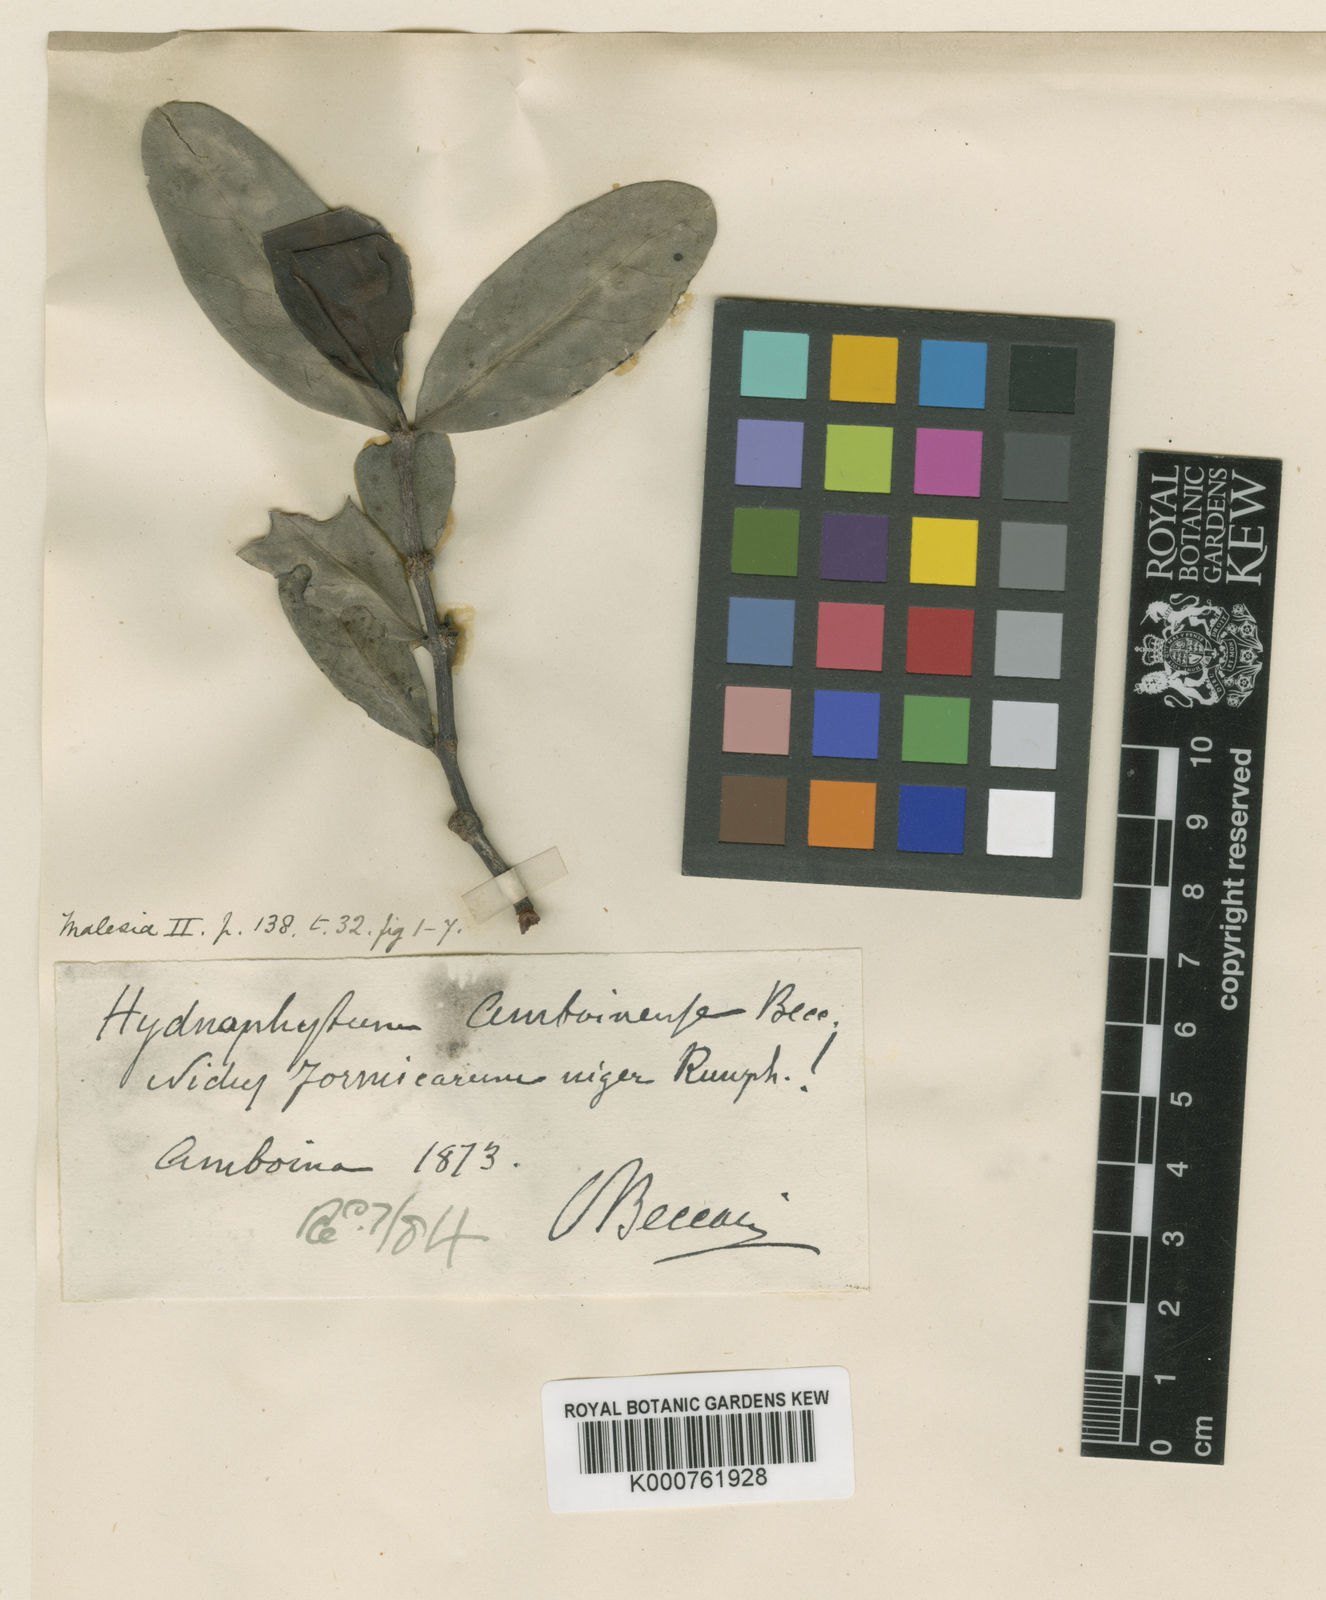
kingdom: Plantae
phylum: Tracheophyta
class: Magnoliopsida
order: Gentianales
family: Rubiaceae
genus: Hydnophytum
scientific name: Hydnophytum formicarum
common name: Ant plant
